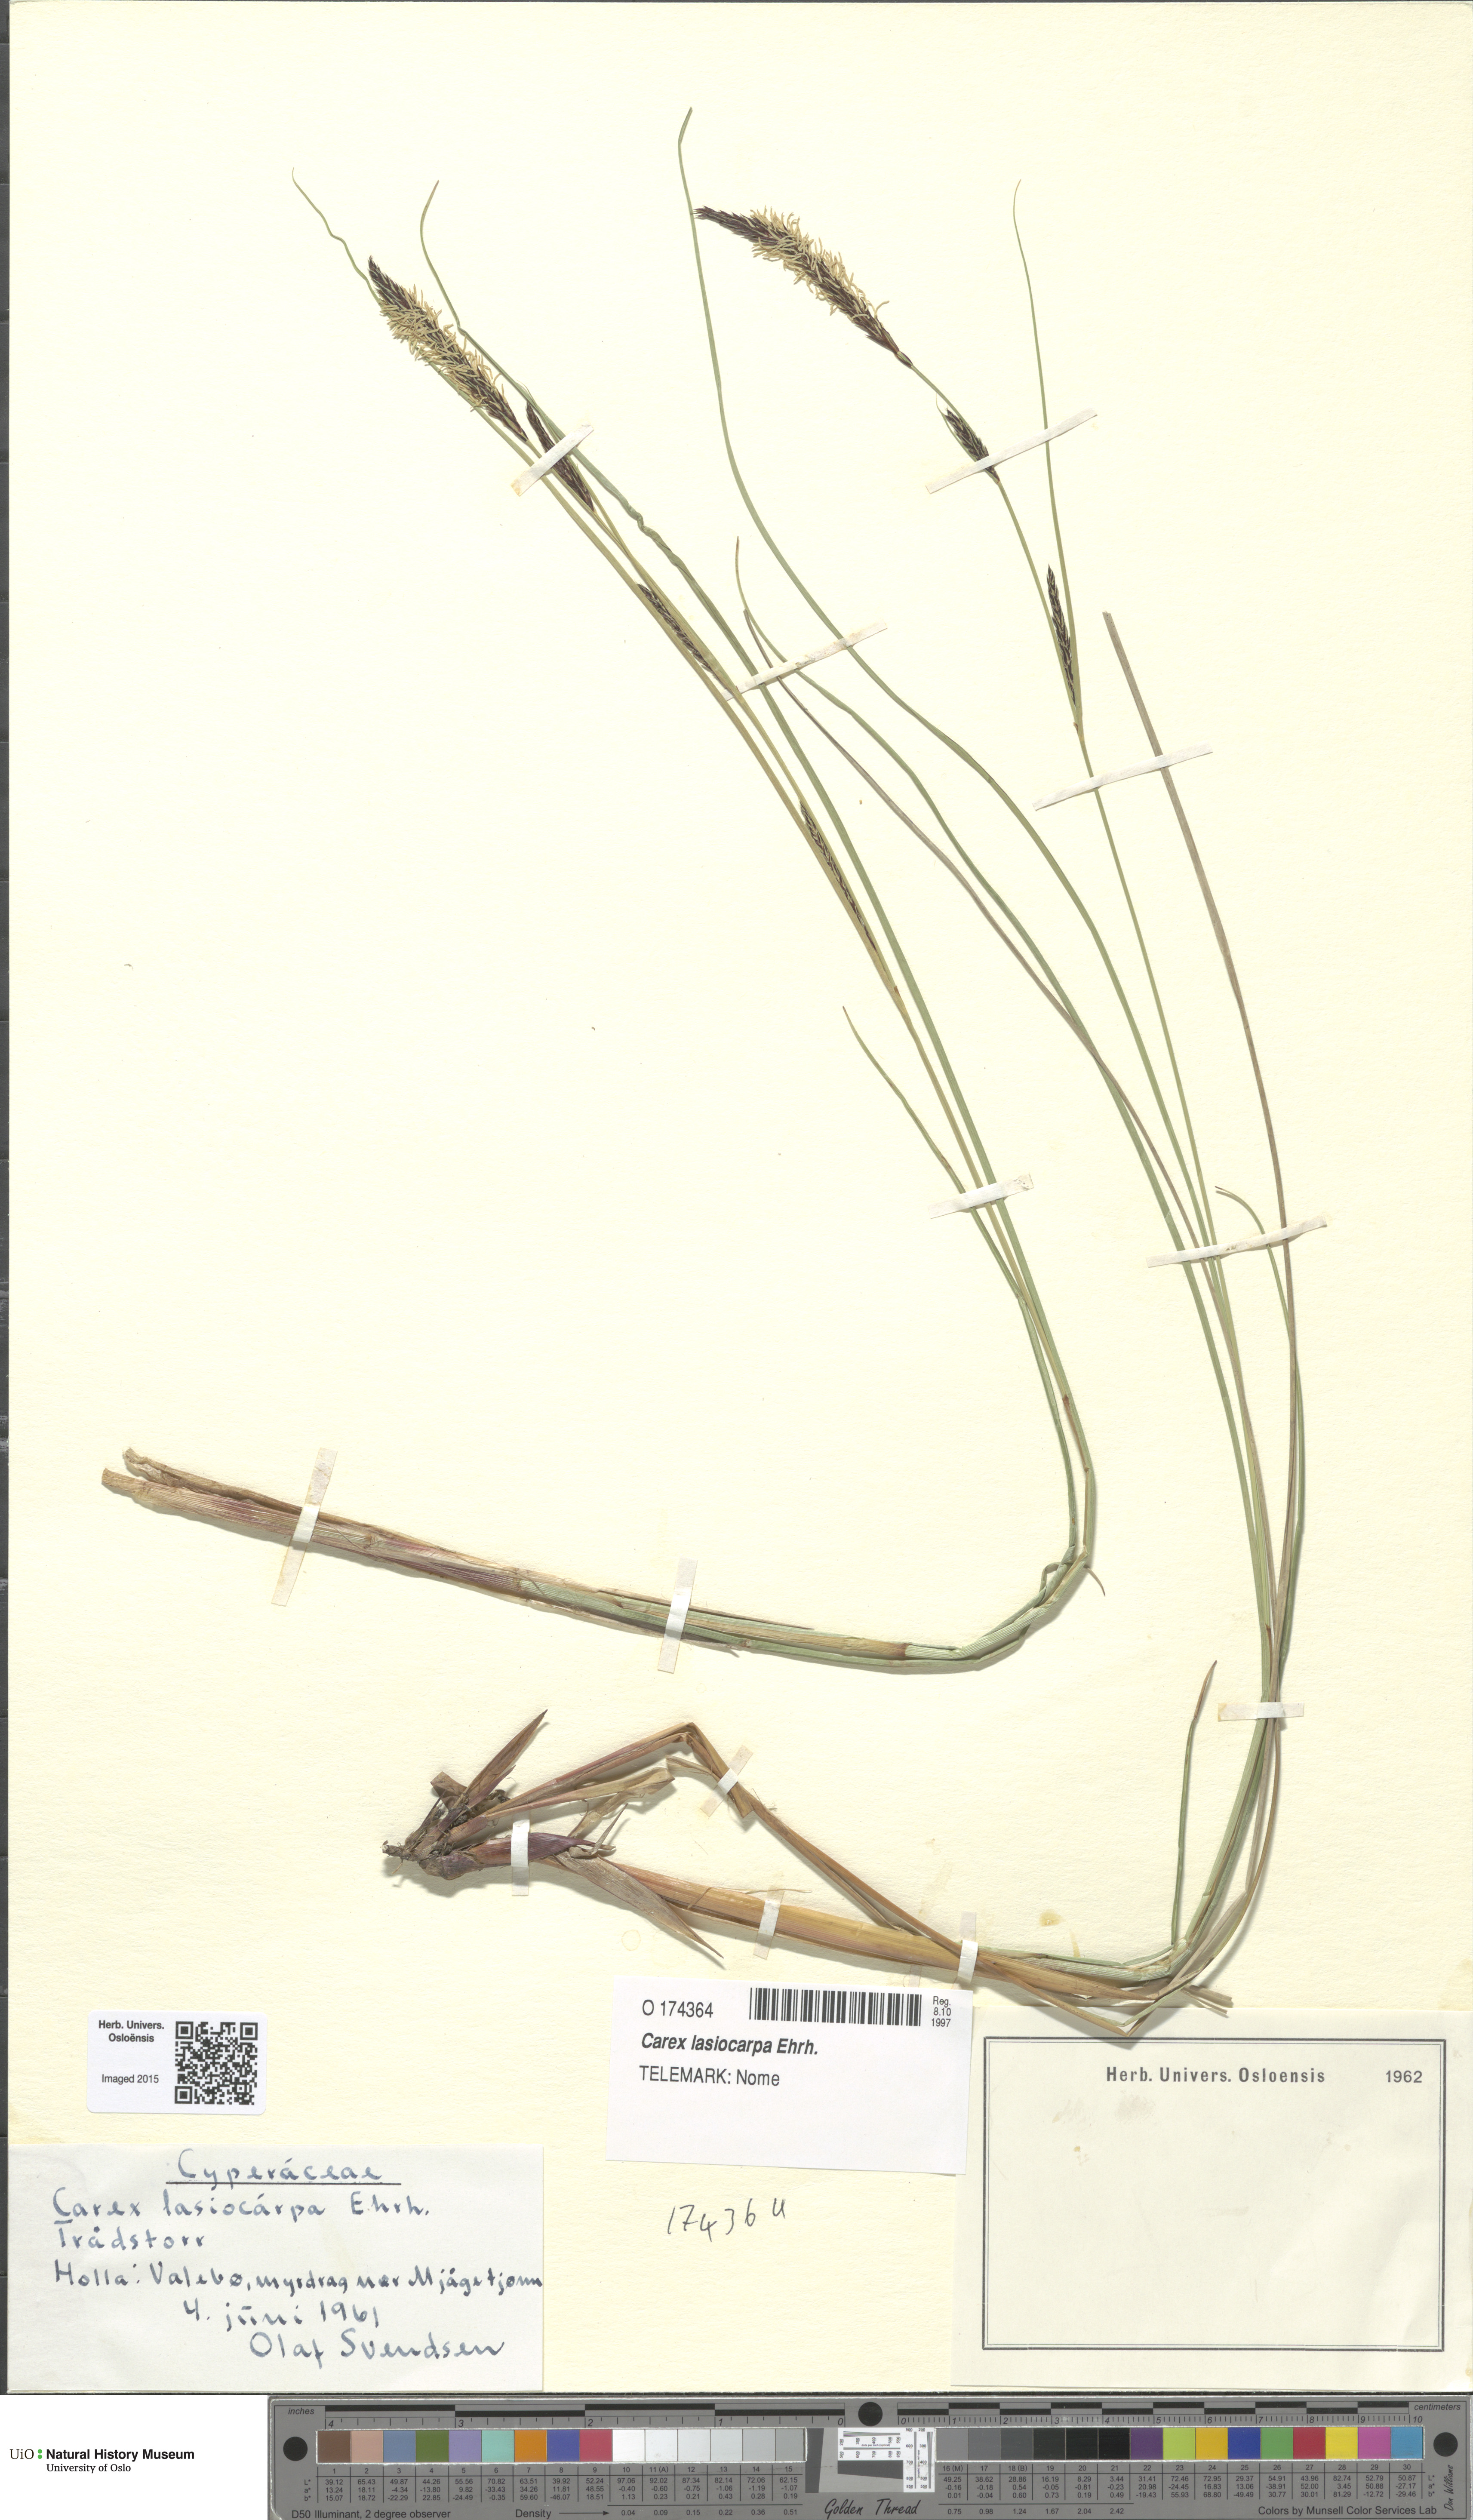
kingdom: Plantae
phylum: Tracheophyta
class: Liliopsida
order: Poales
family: Cyperaceae
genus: Carex
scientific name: Carex lasiocarpa
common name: Slender sedge
